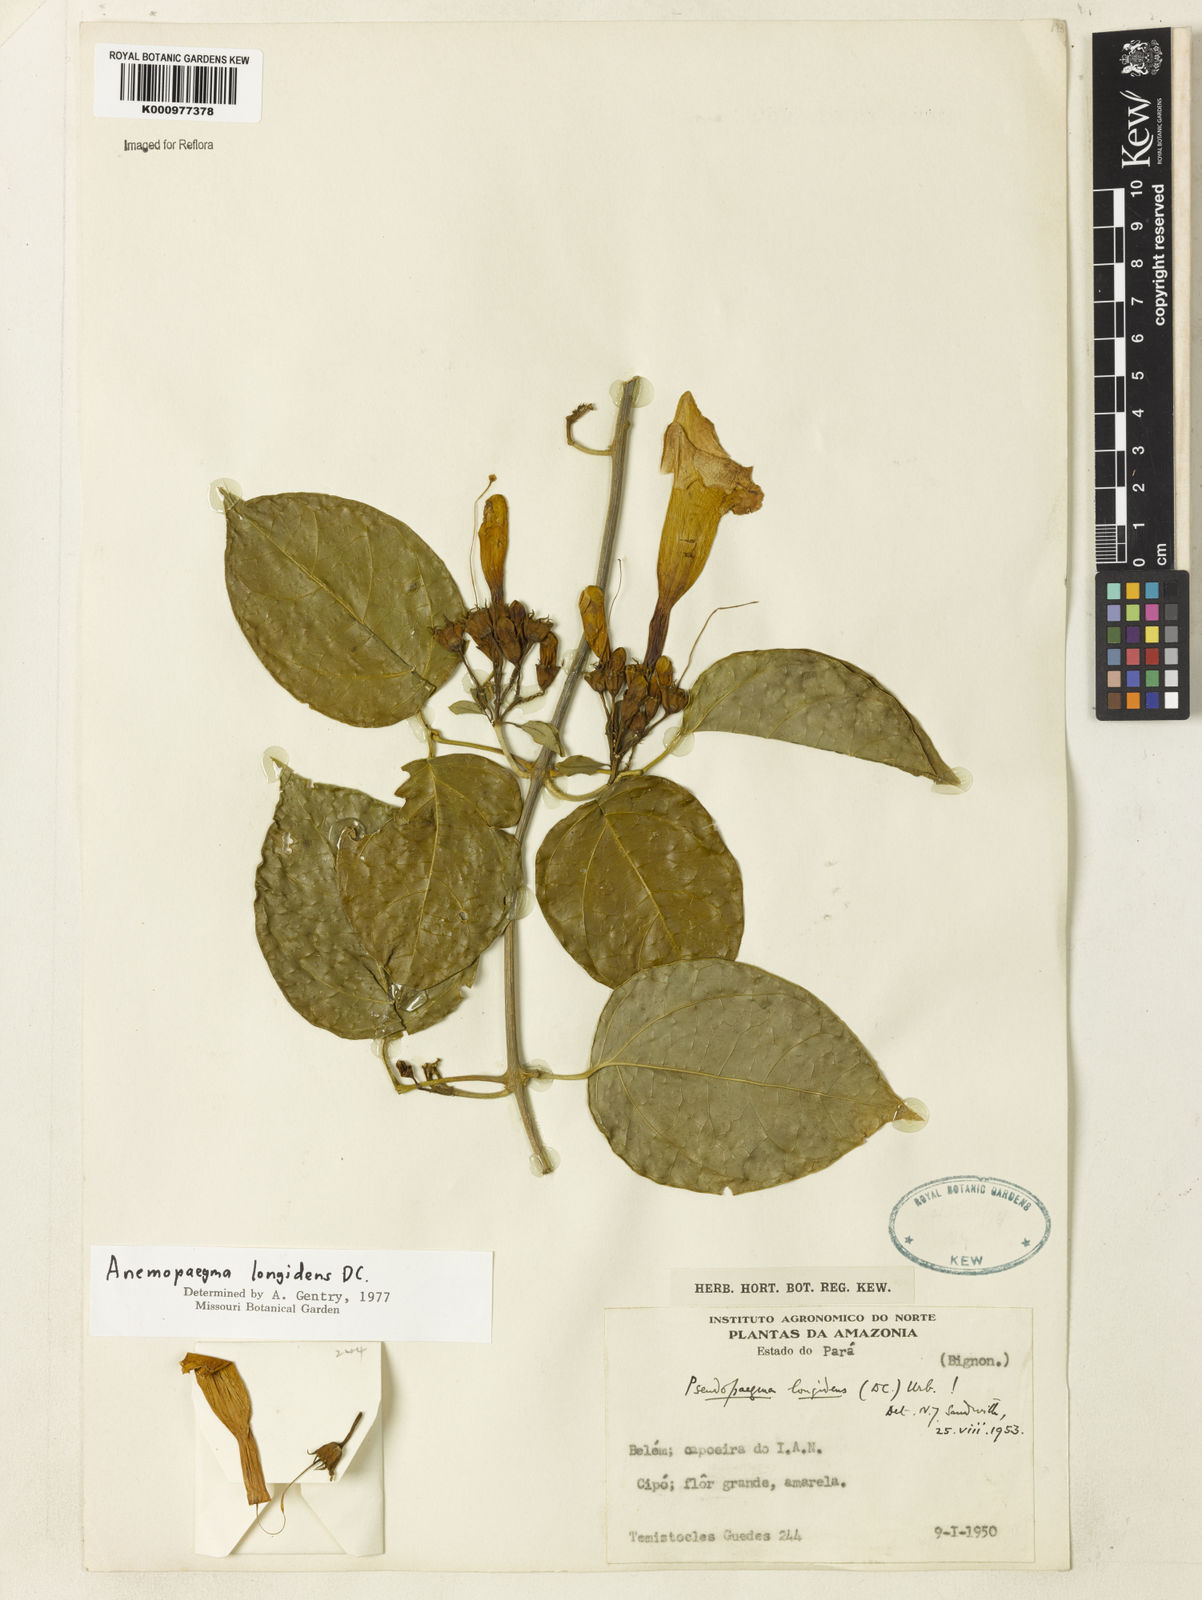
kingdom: Plantae
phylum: Tracheophyta
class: Magnoliopsida
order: Lamiales
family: Bignoniaceae
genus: Anemopaegma
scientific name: Anemopaegma longidens
